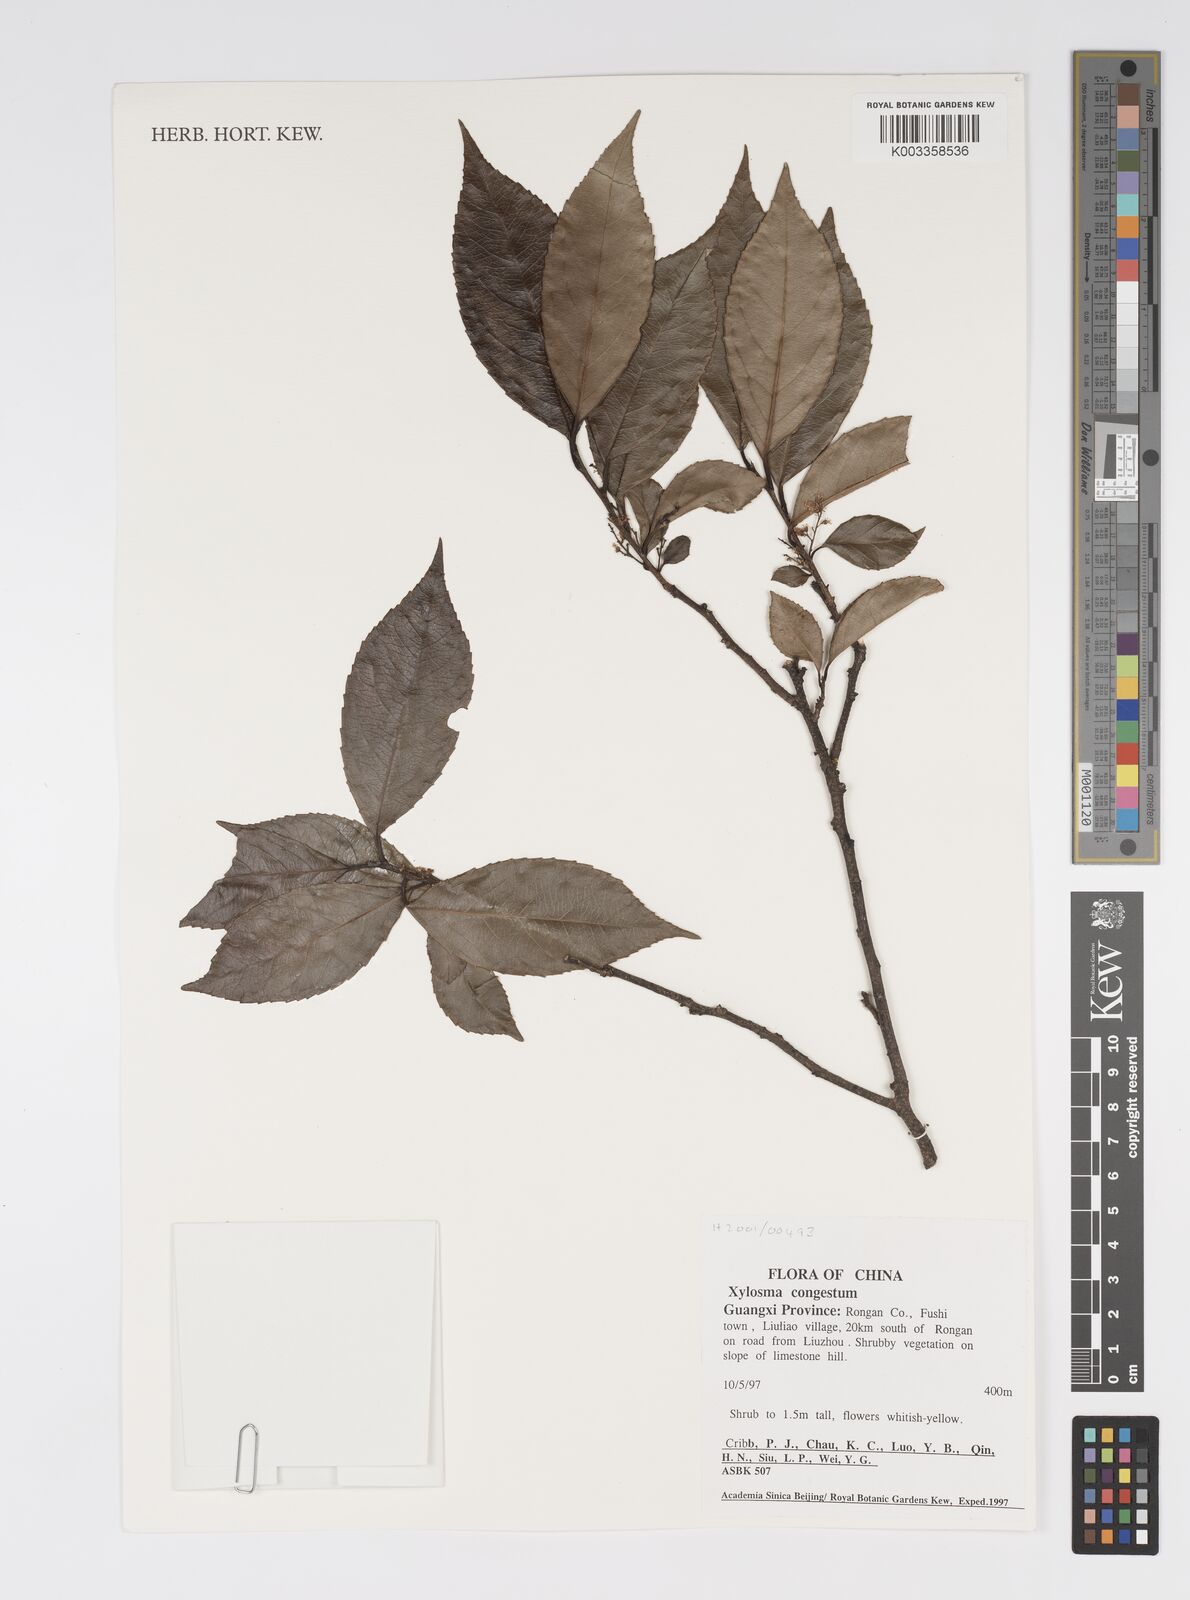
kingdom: Plantae
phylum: Tracheophyta
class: Magnoliopsida
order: Malpighiales
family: Salicaceae
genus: Xylosma
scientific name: Xylosma racemosum
